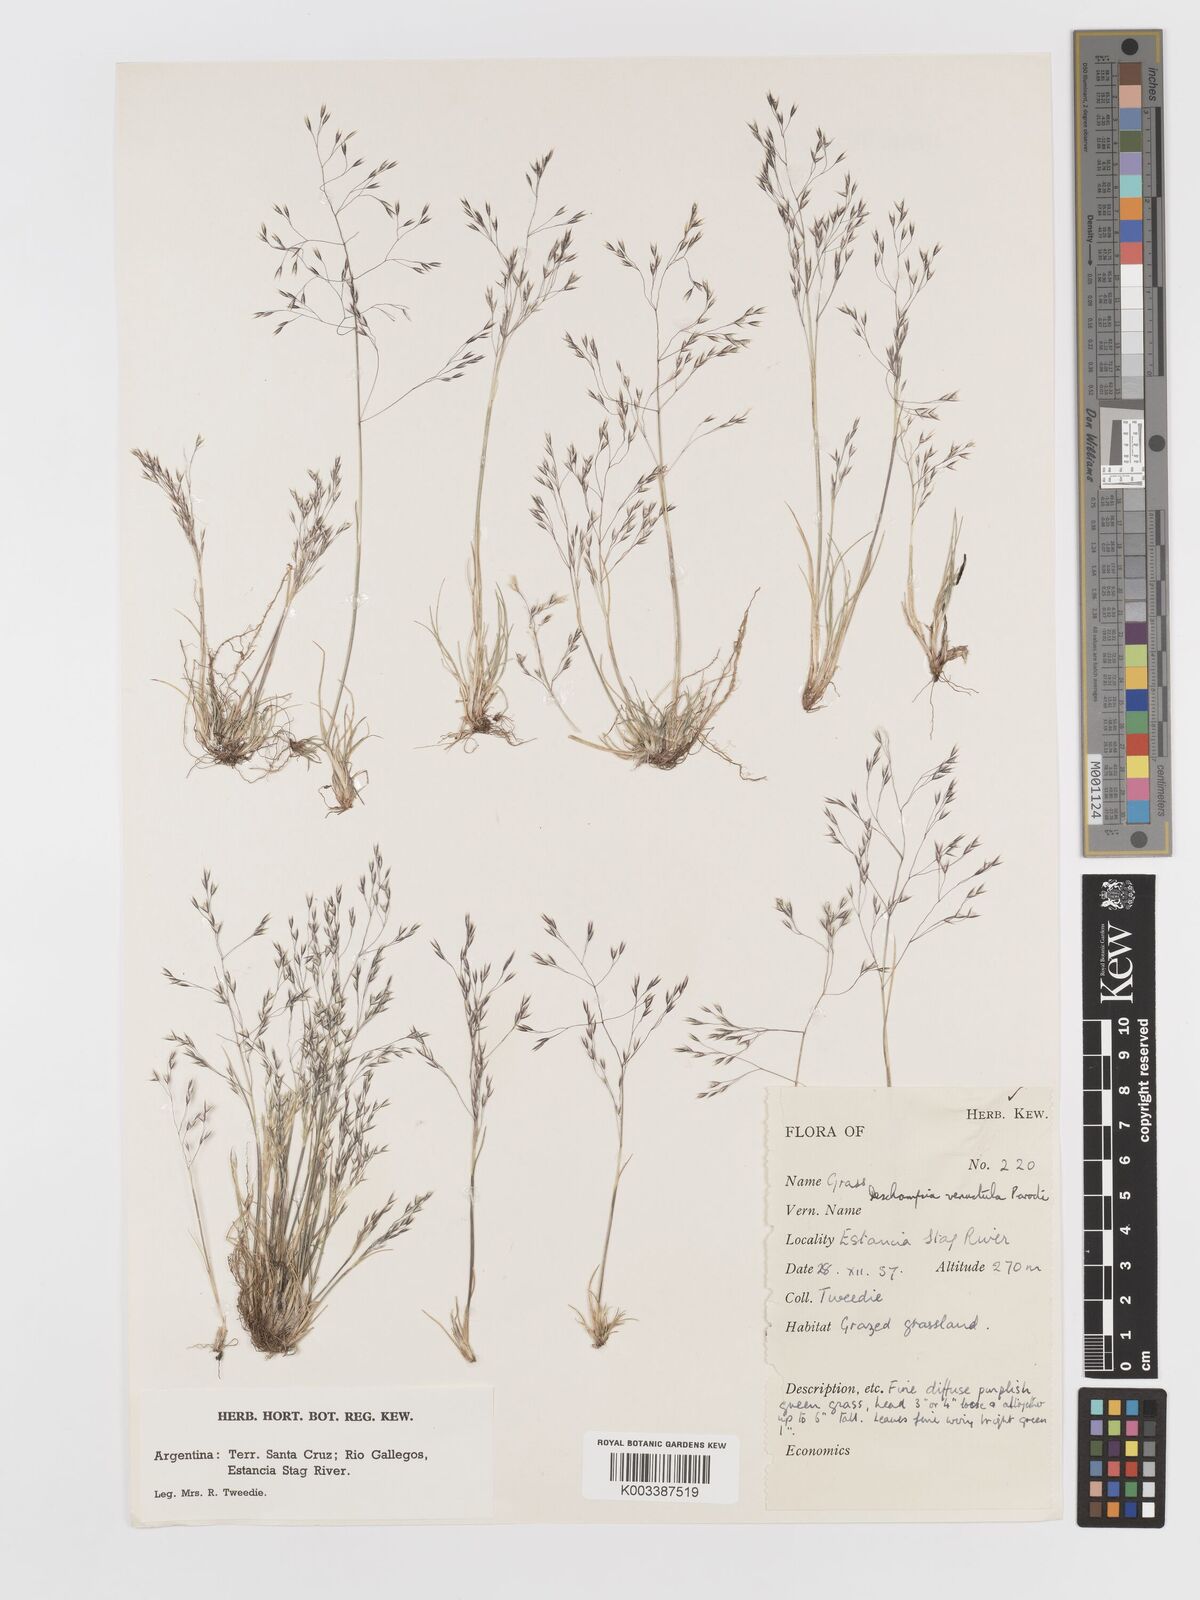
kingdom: Plantae
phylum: Tracheophyta
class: Liliopsida
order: Poales
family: Poaceae
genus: Deschampsia
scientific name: Deschampsia venustula
